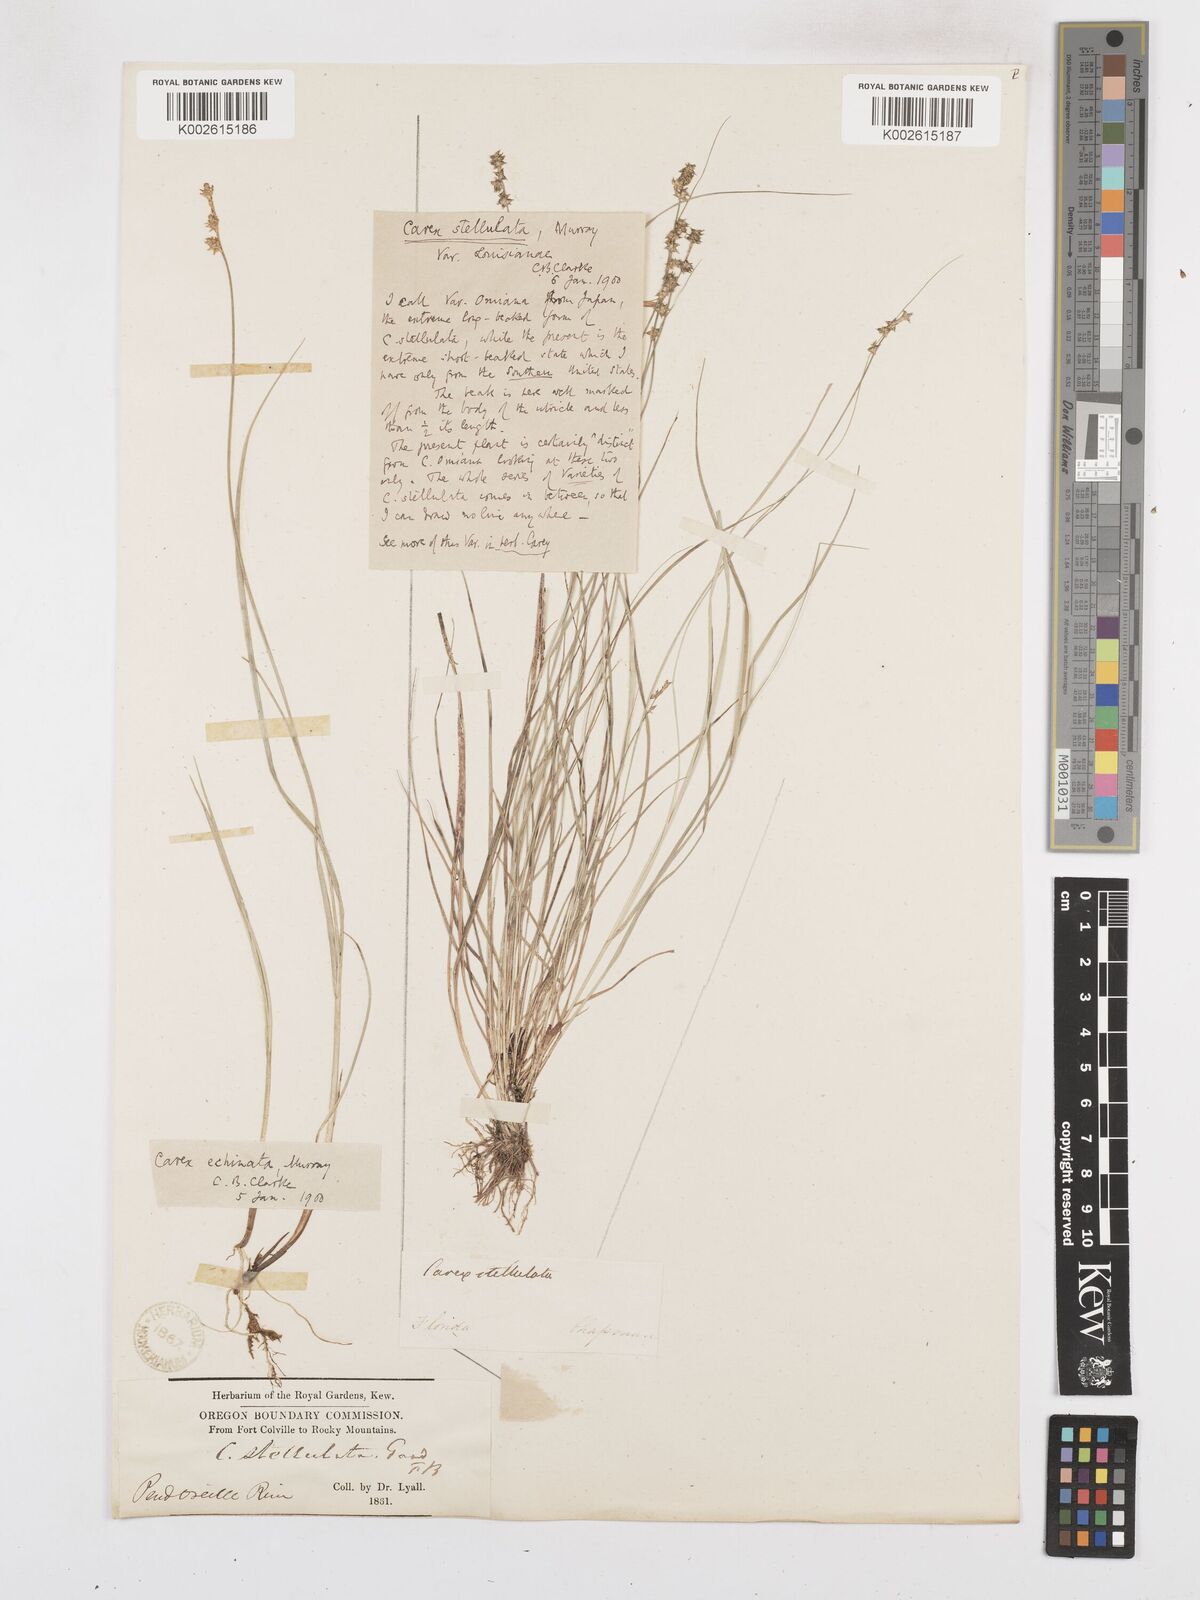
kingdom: Plantae
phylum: Tracheophyta
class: Liliopsida
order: Poales
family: Cyperaceae
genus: Carex
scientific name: Carex echinata
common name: Star sedge
